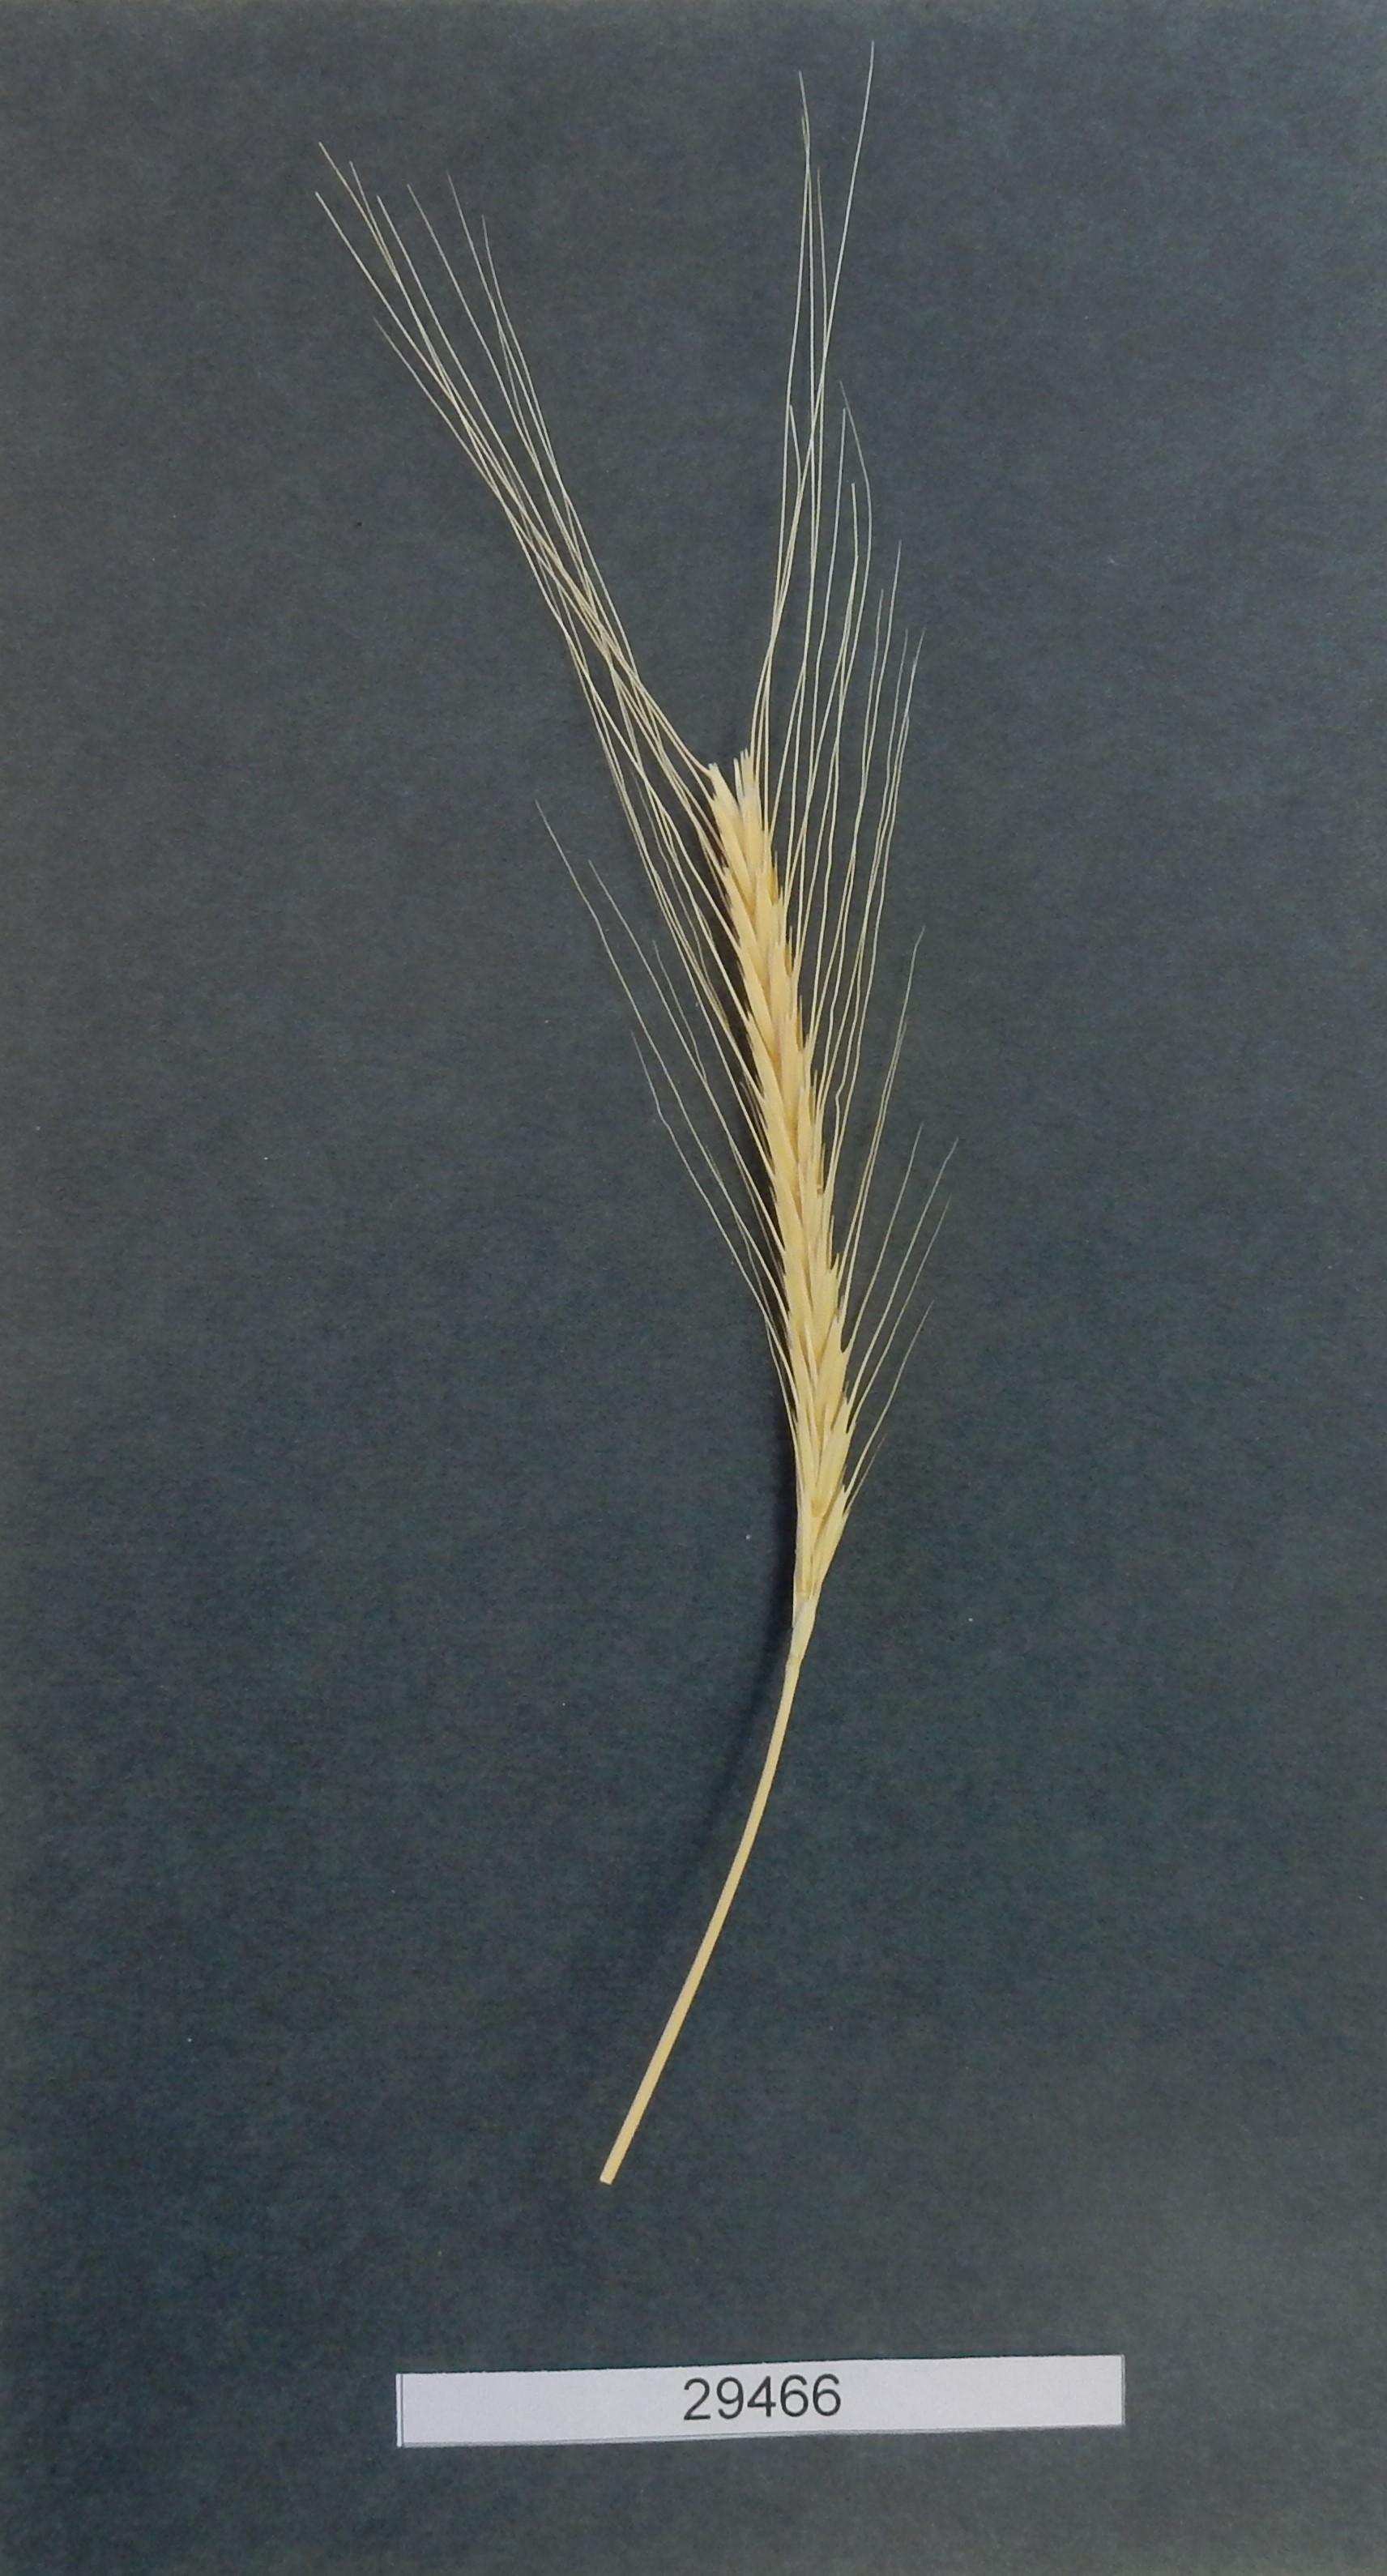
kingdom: Plantae
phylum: Tracheophyta
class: Liliopsida
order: Poales
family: Poaceae
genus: Triticum
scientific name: Triticum urartu
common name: Red wild einkorn
